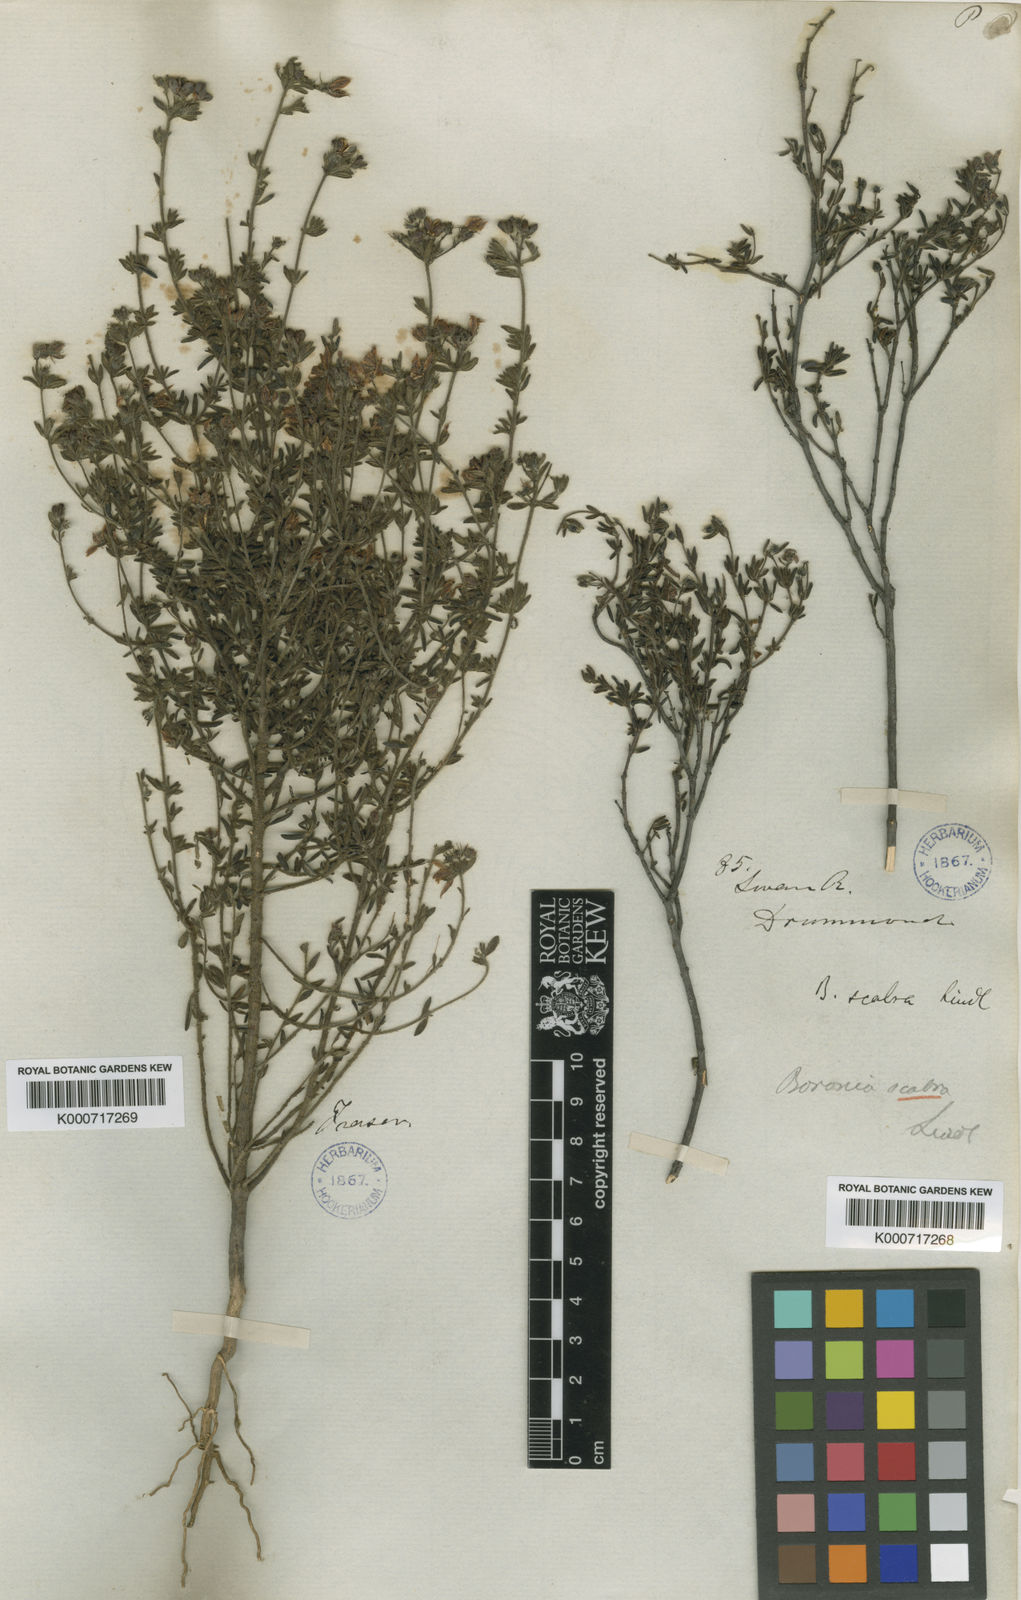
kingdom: Plantae
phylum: Tracheophyta
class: Magnoliopsida
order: Sapindales
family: Rutaceae
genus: Boronia
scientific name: Boronia scabra
